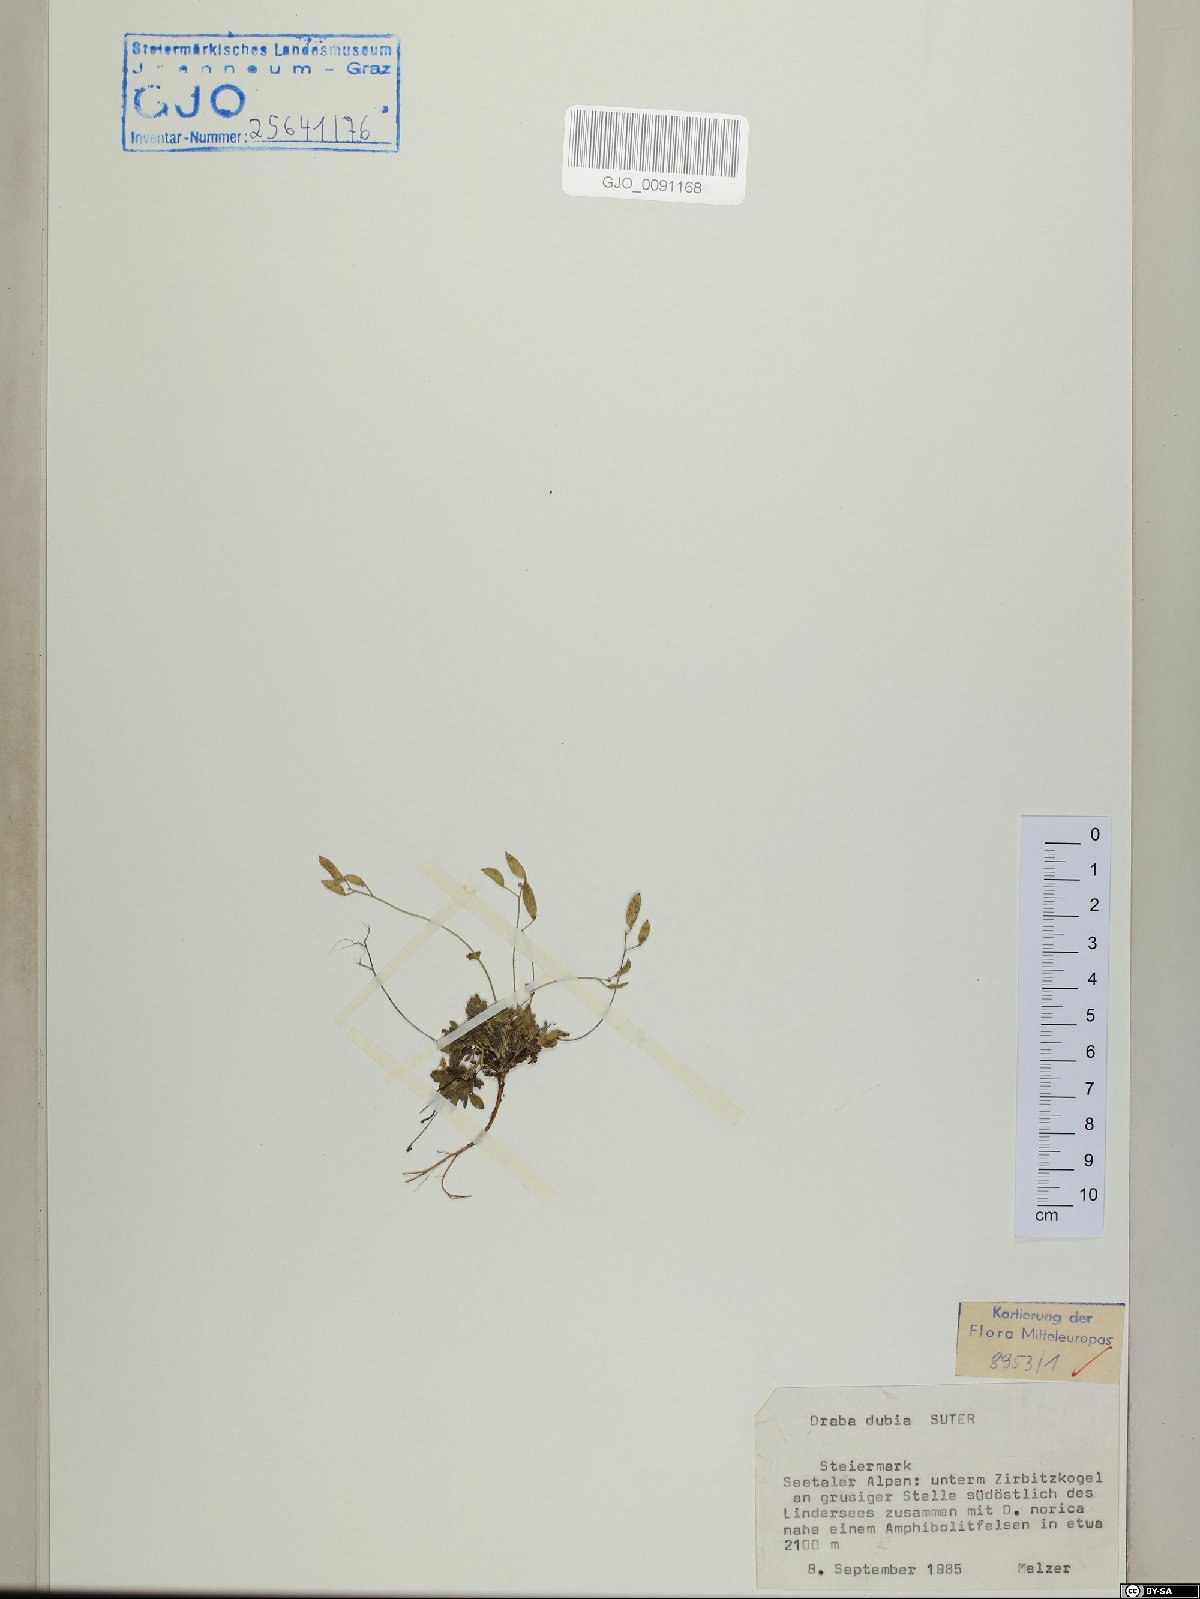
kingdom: Plantae
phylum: Tracheophyta
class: Magnoliopsida
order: Brassicales
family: Brassicaceae
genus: Draba
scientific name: Draba dubia
